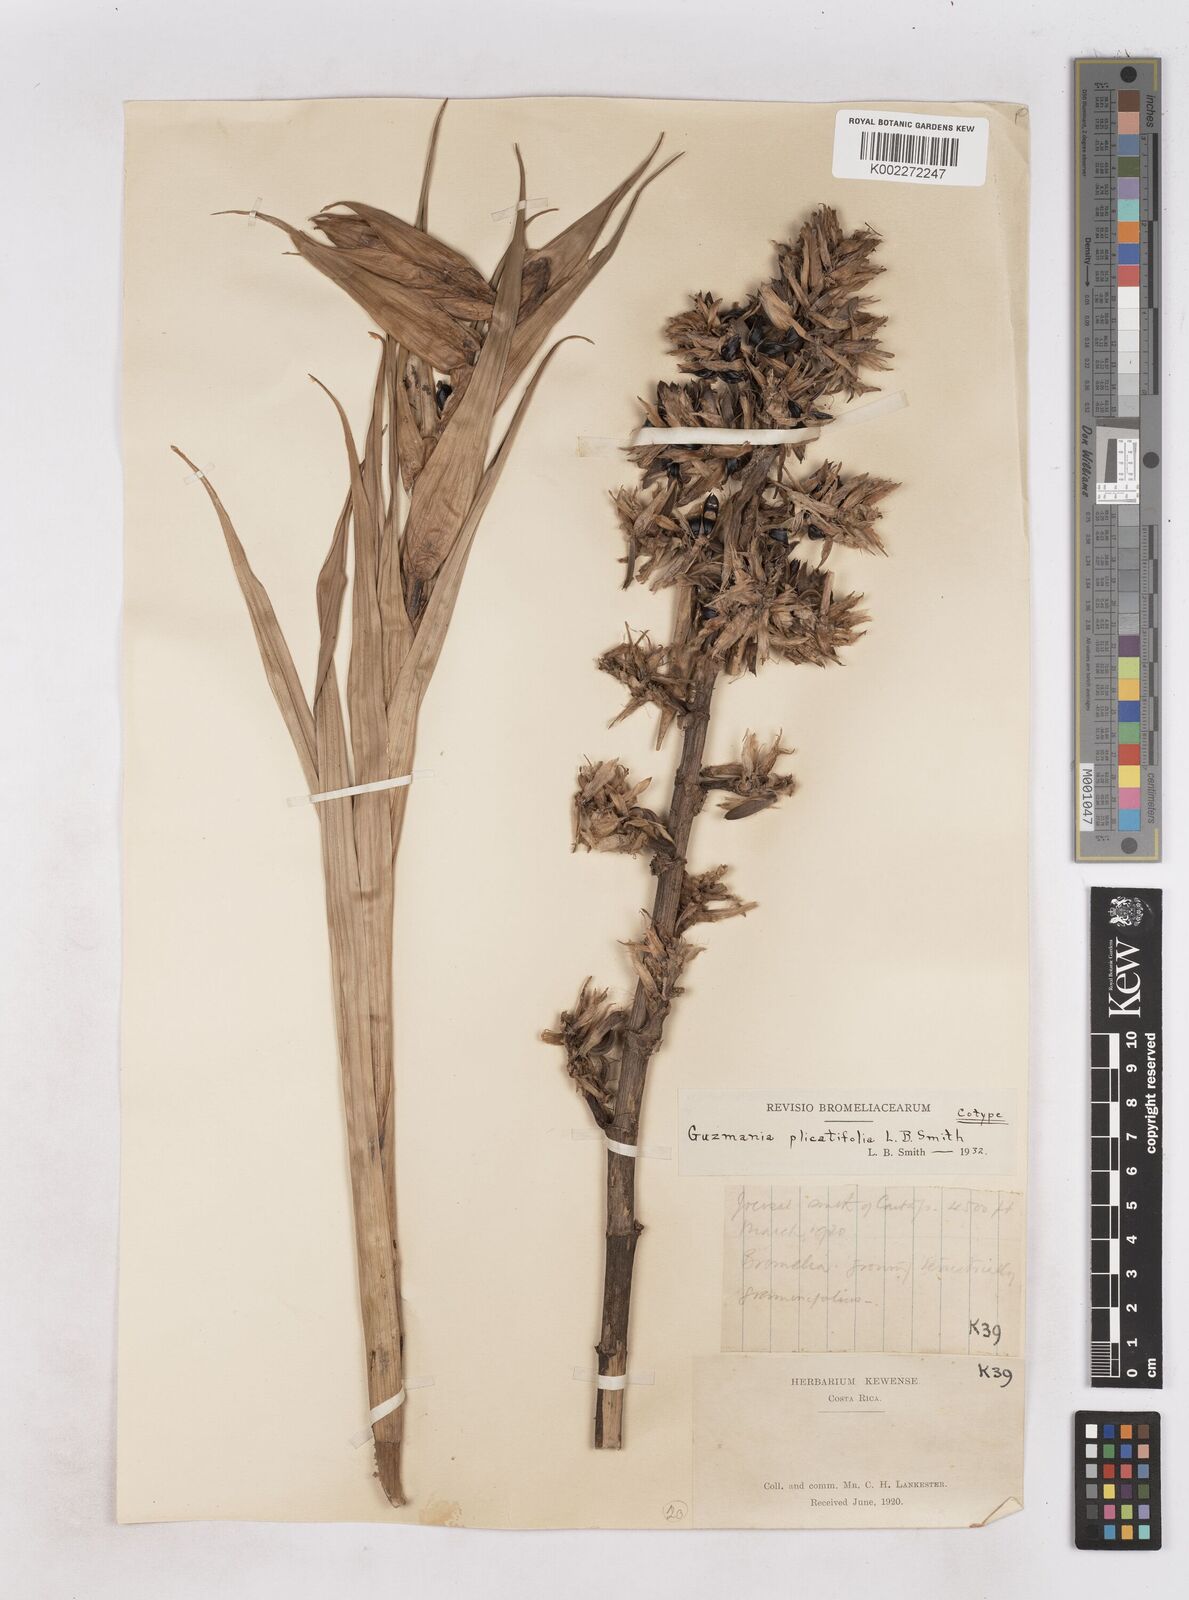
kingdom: Plantae
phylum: Tracheophyta
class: Liliopsida
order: Poales
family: Bromeliaceae
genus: Guzmania
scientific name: Guzmania plicatifolia
